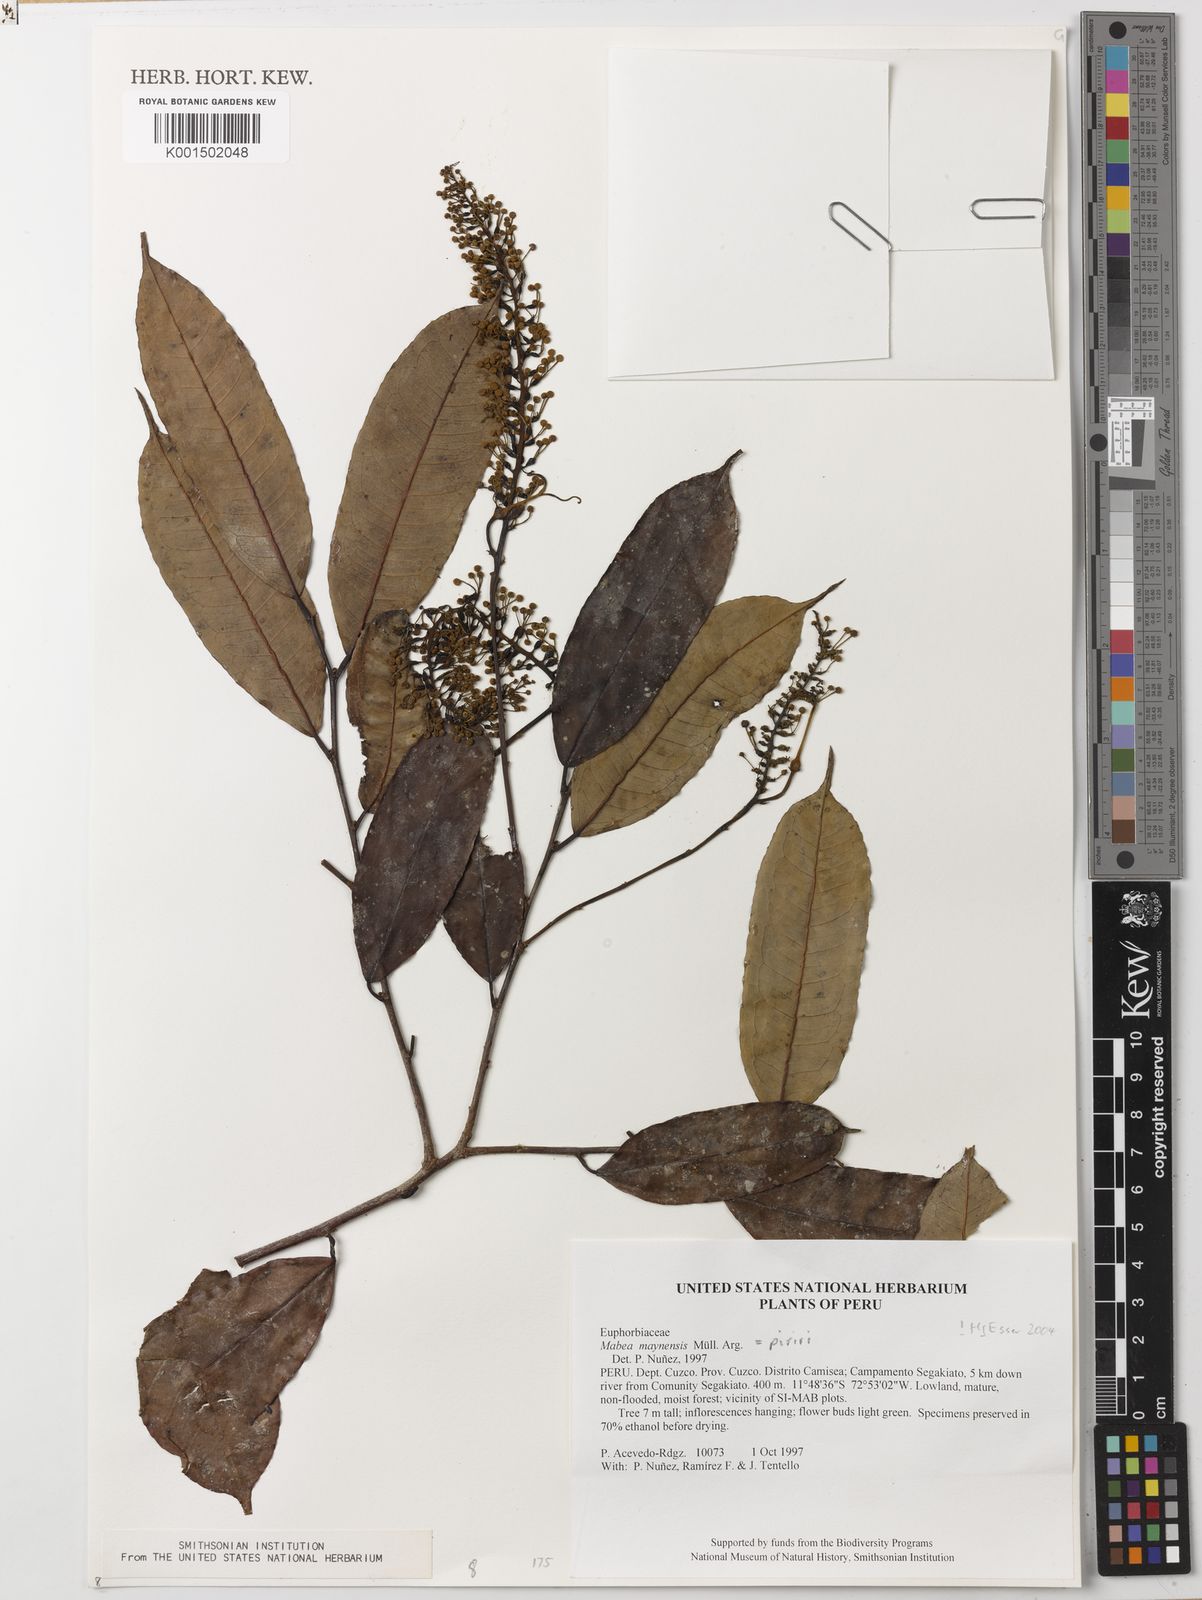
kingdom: Plantae
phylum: Tracheophyta
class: Magnoliopsida
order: Malpighiales
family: Euphorbiaceae
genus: Mabea
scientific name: Mabea piriri
